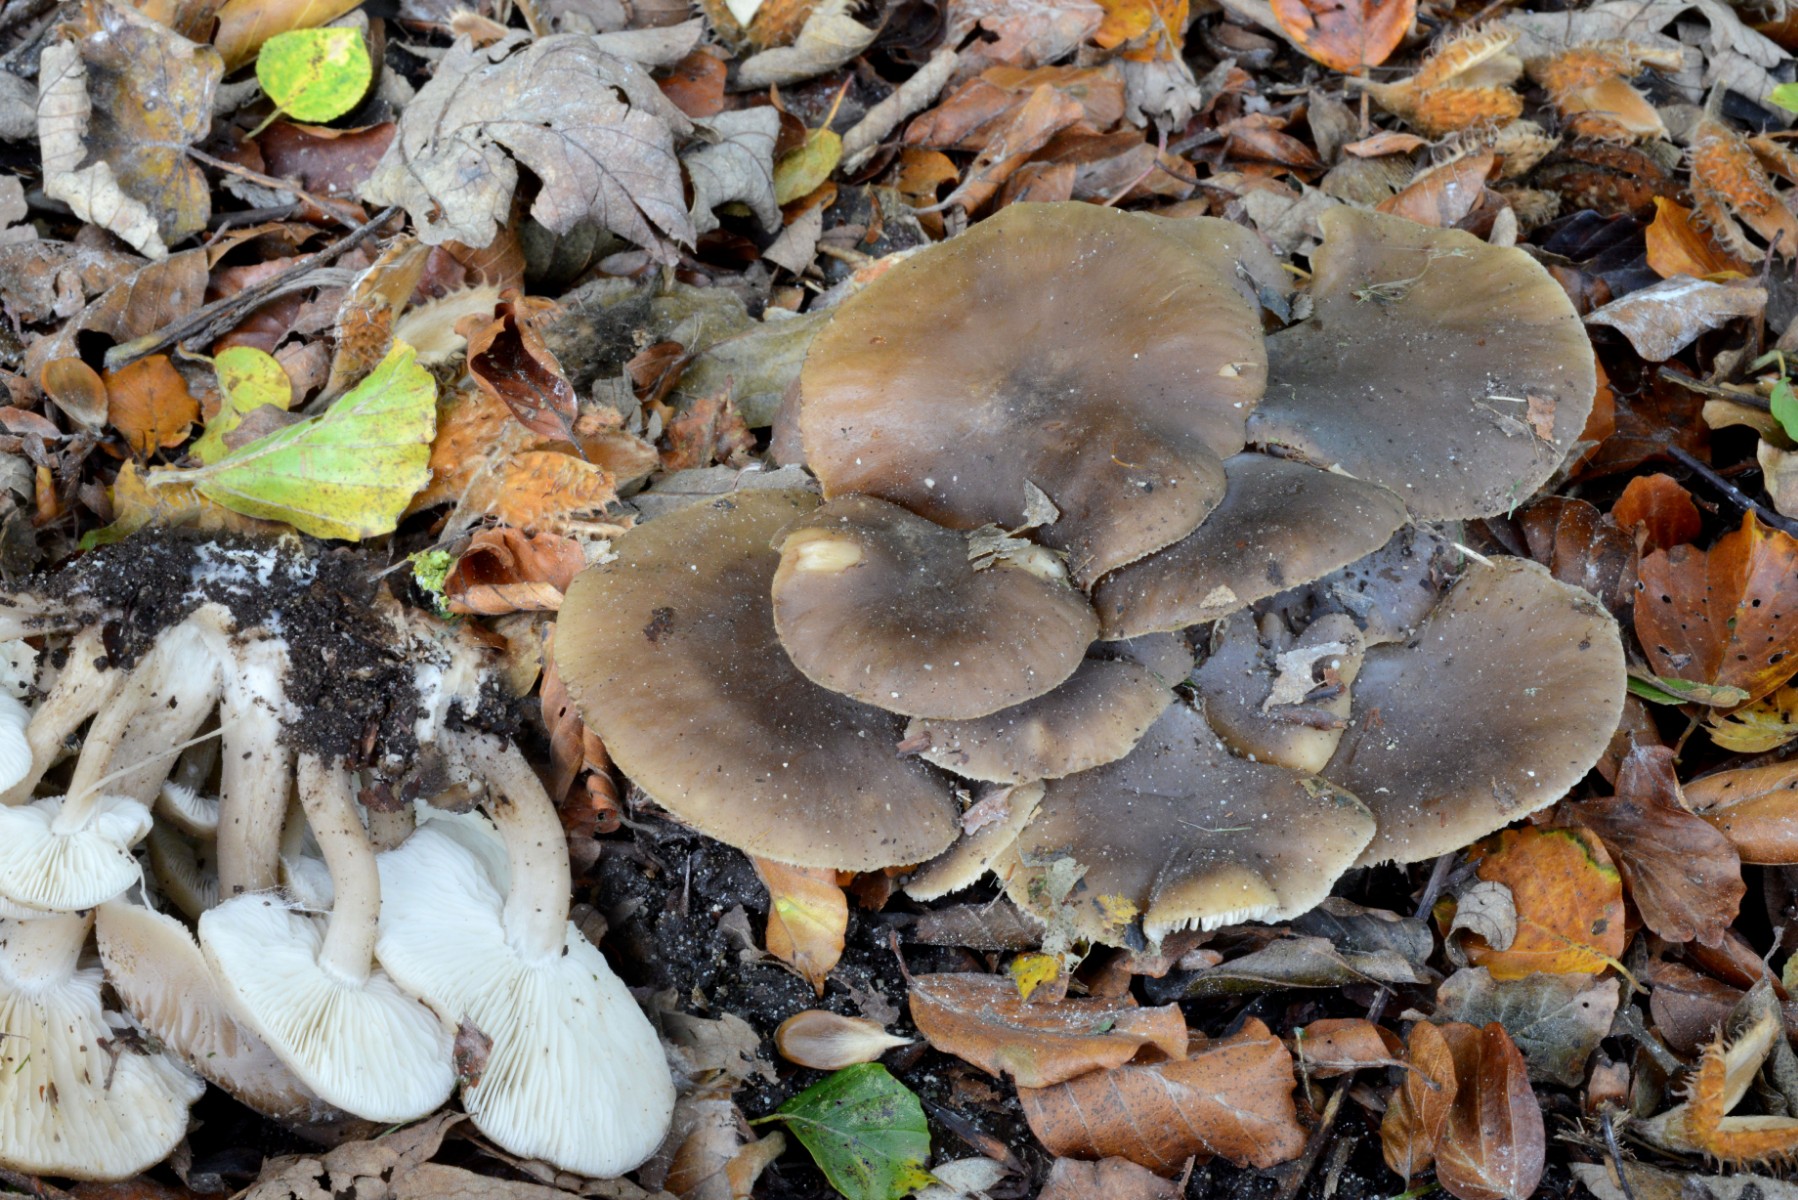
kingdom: Fungi
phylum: Basidiomycota
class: Agaricomycetes
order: Agaricales
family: Lyophyllaceae
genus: Lyophyllum
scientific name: Lyophyllum decastes
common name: Clustered domecap
